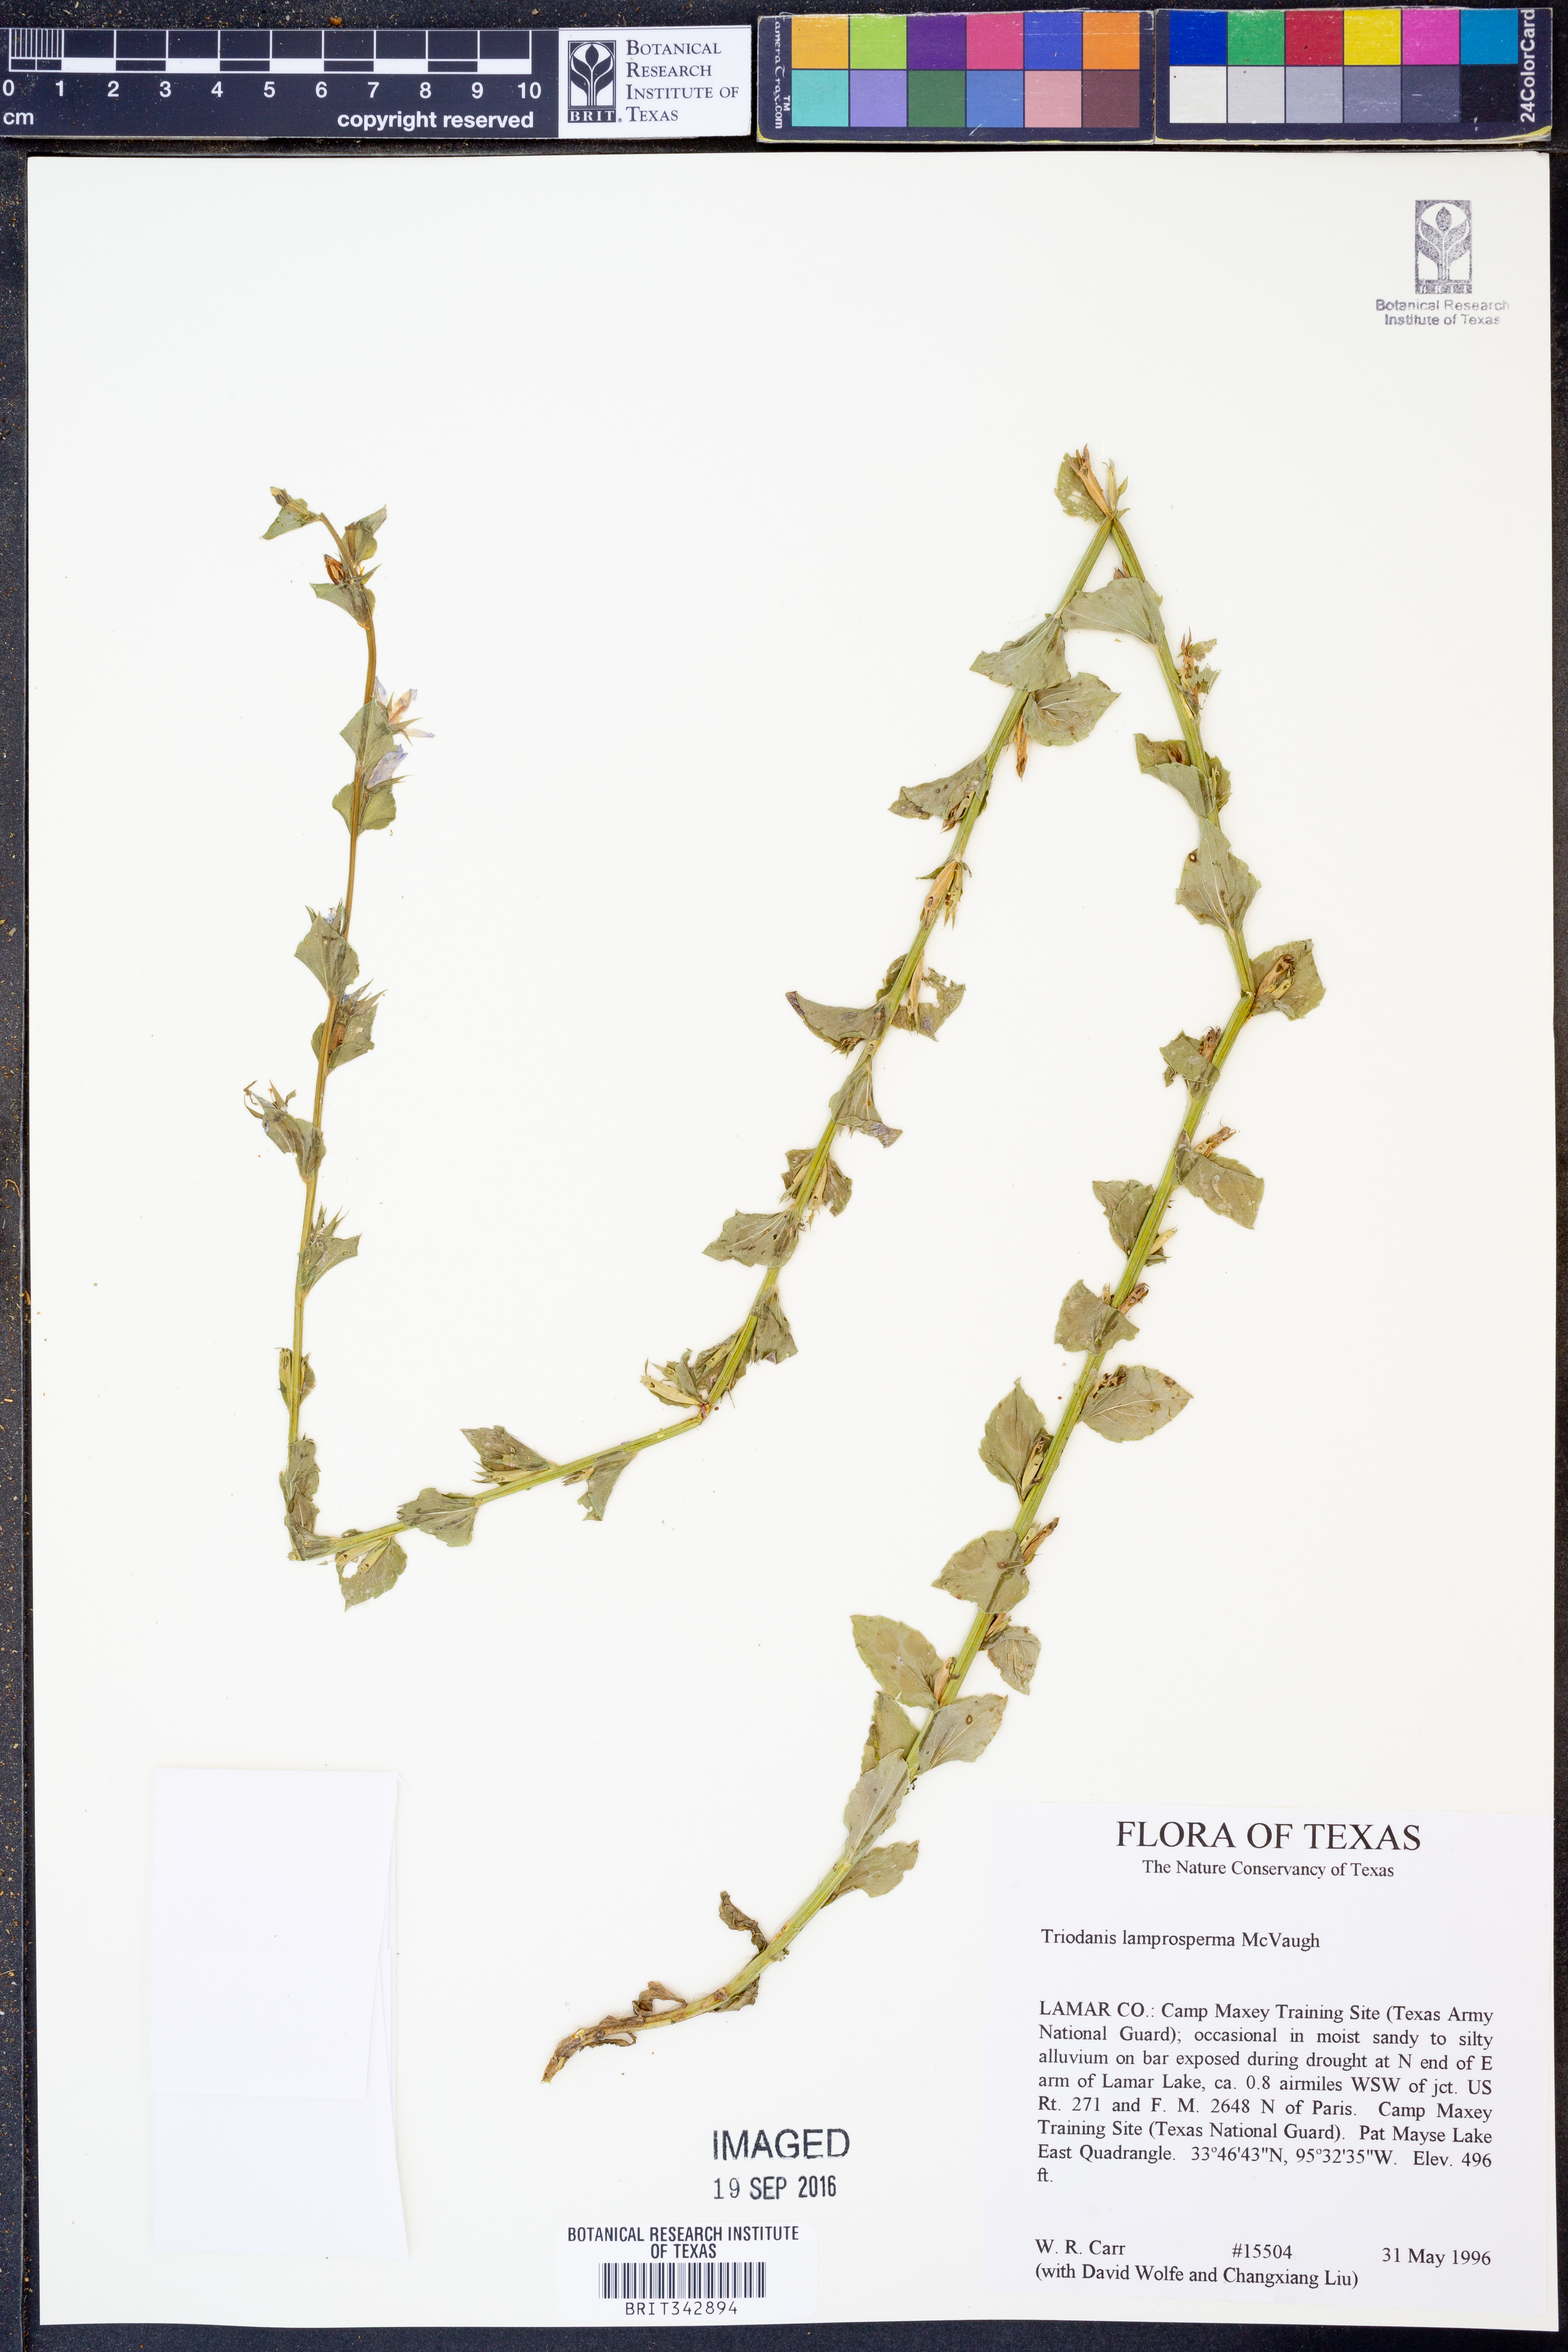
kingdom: Plantae
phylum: Tracheophyta
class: Magnoliopsida
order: Asterales
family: Campanulaceae
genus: Triodanis
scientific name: Triodanis lamprosperma
